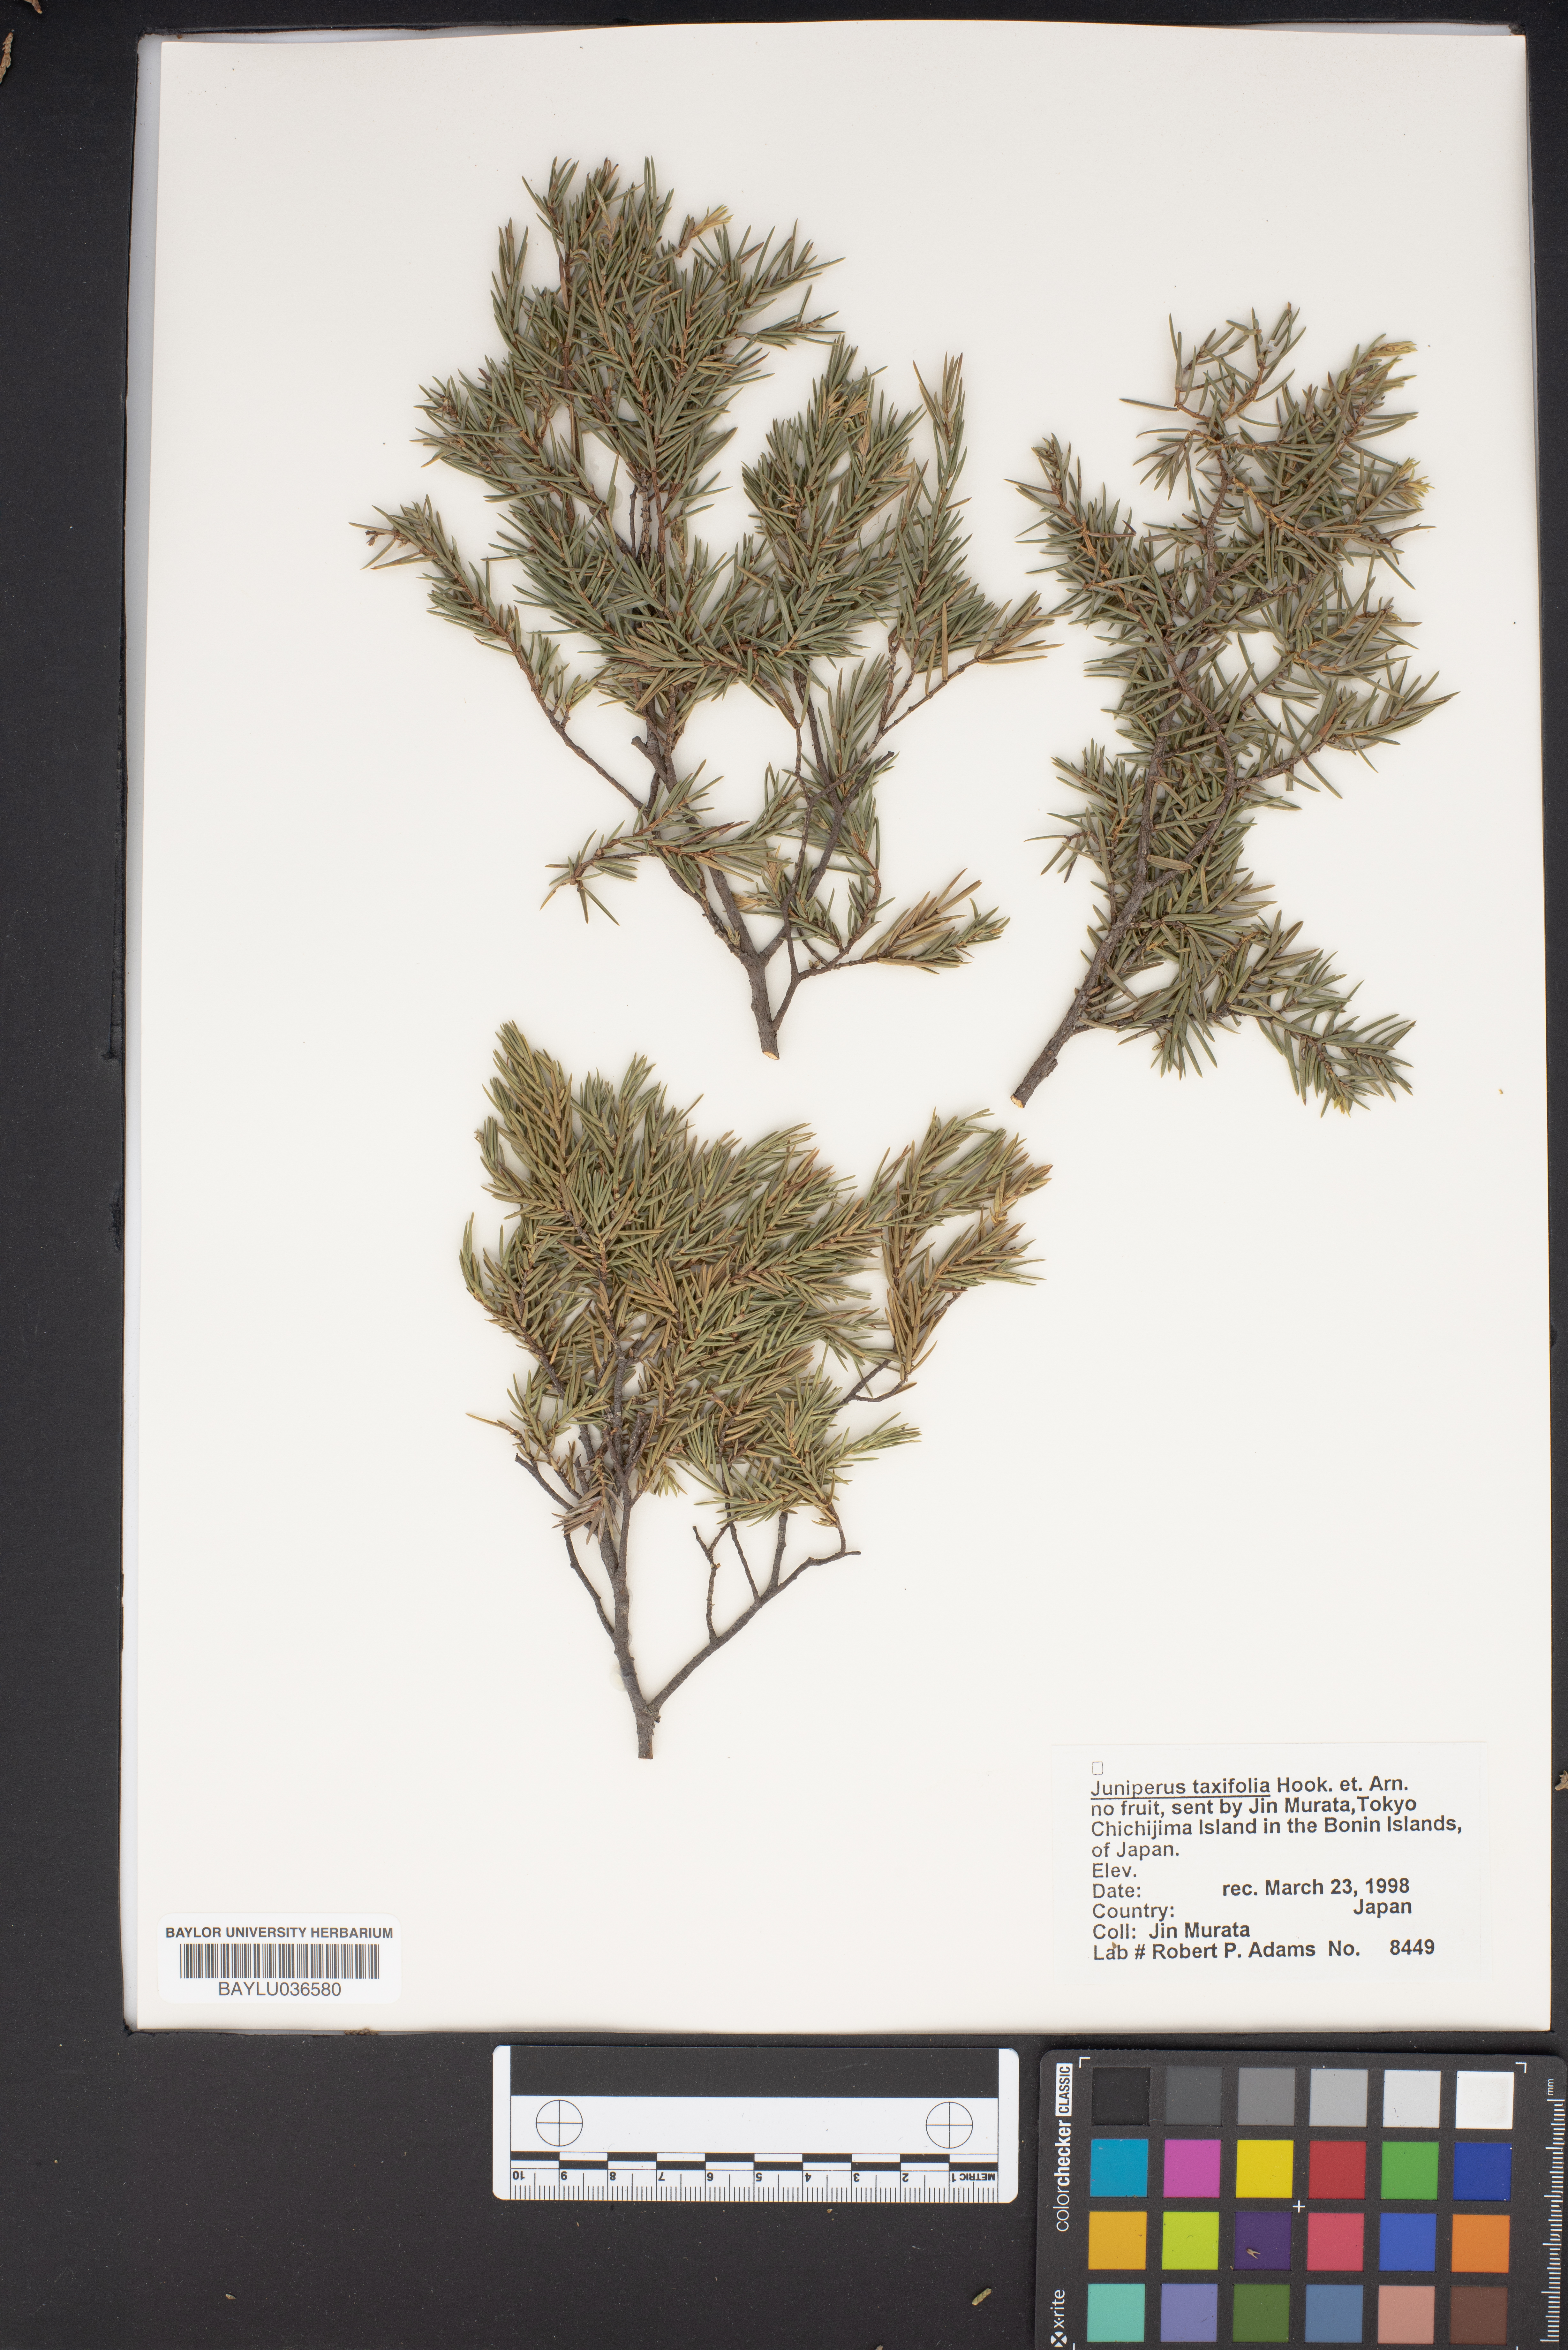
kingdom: Plantae
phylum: Tracheophyta
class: Pinopsida
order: Pinales
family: Cupressaceae
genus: Juniperus
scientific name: Juniperus taxifolia
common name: Fitcheisi
